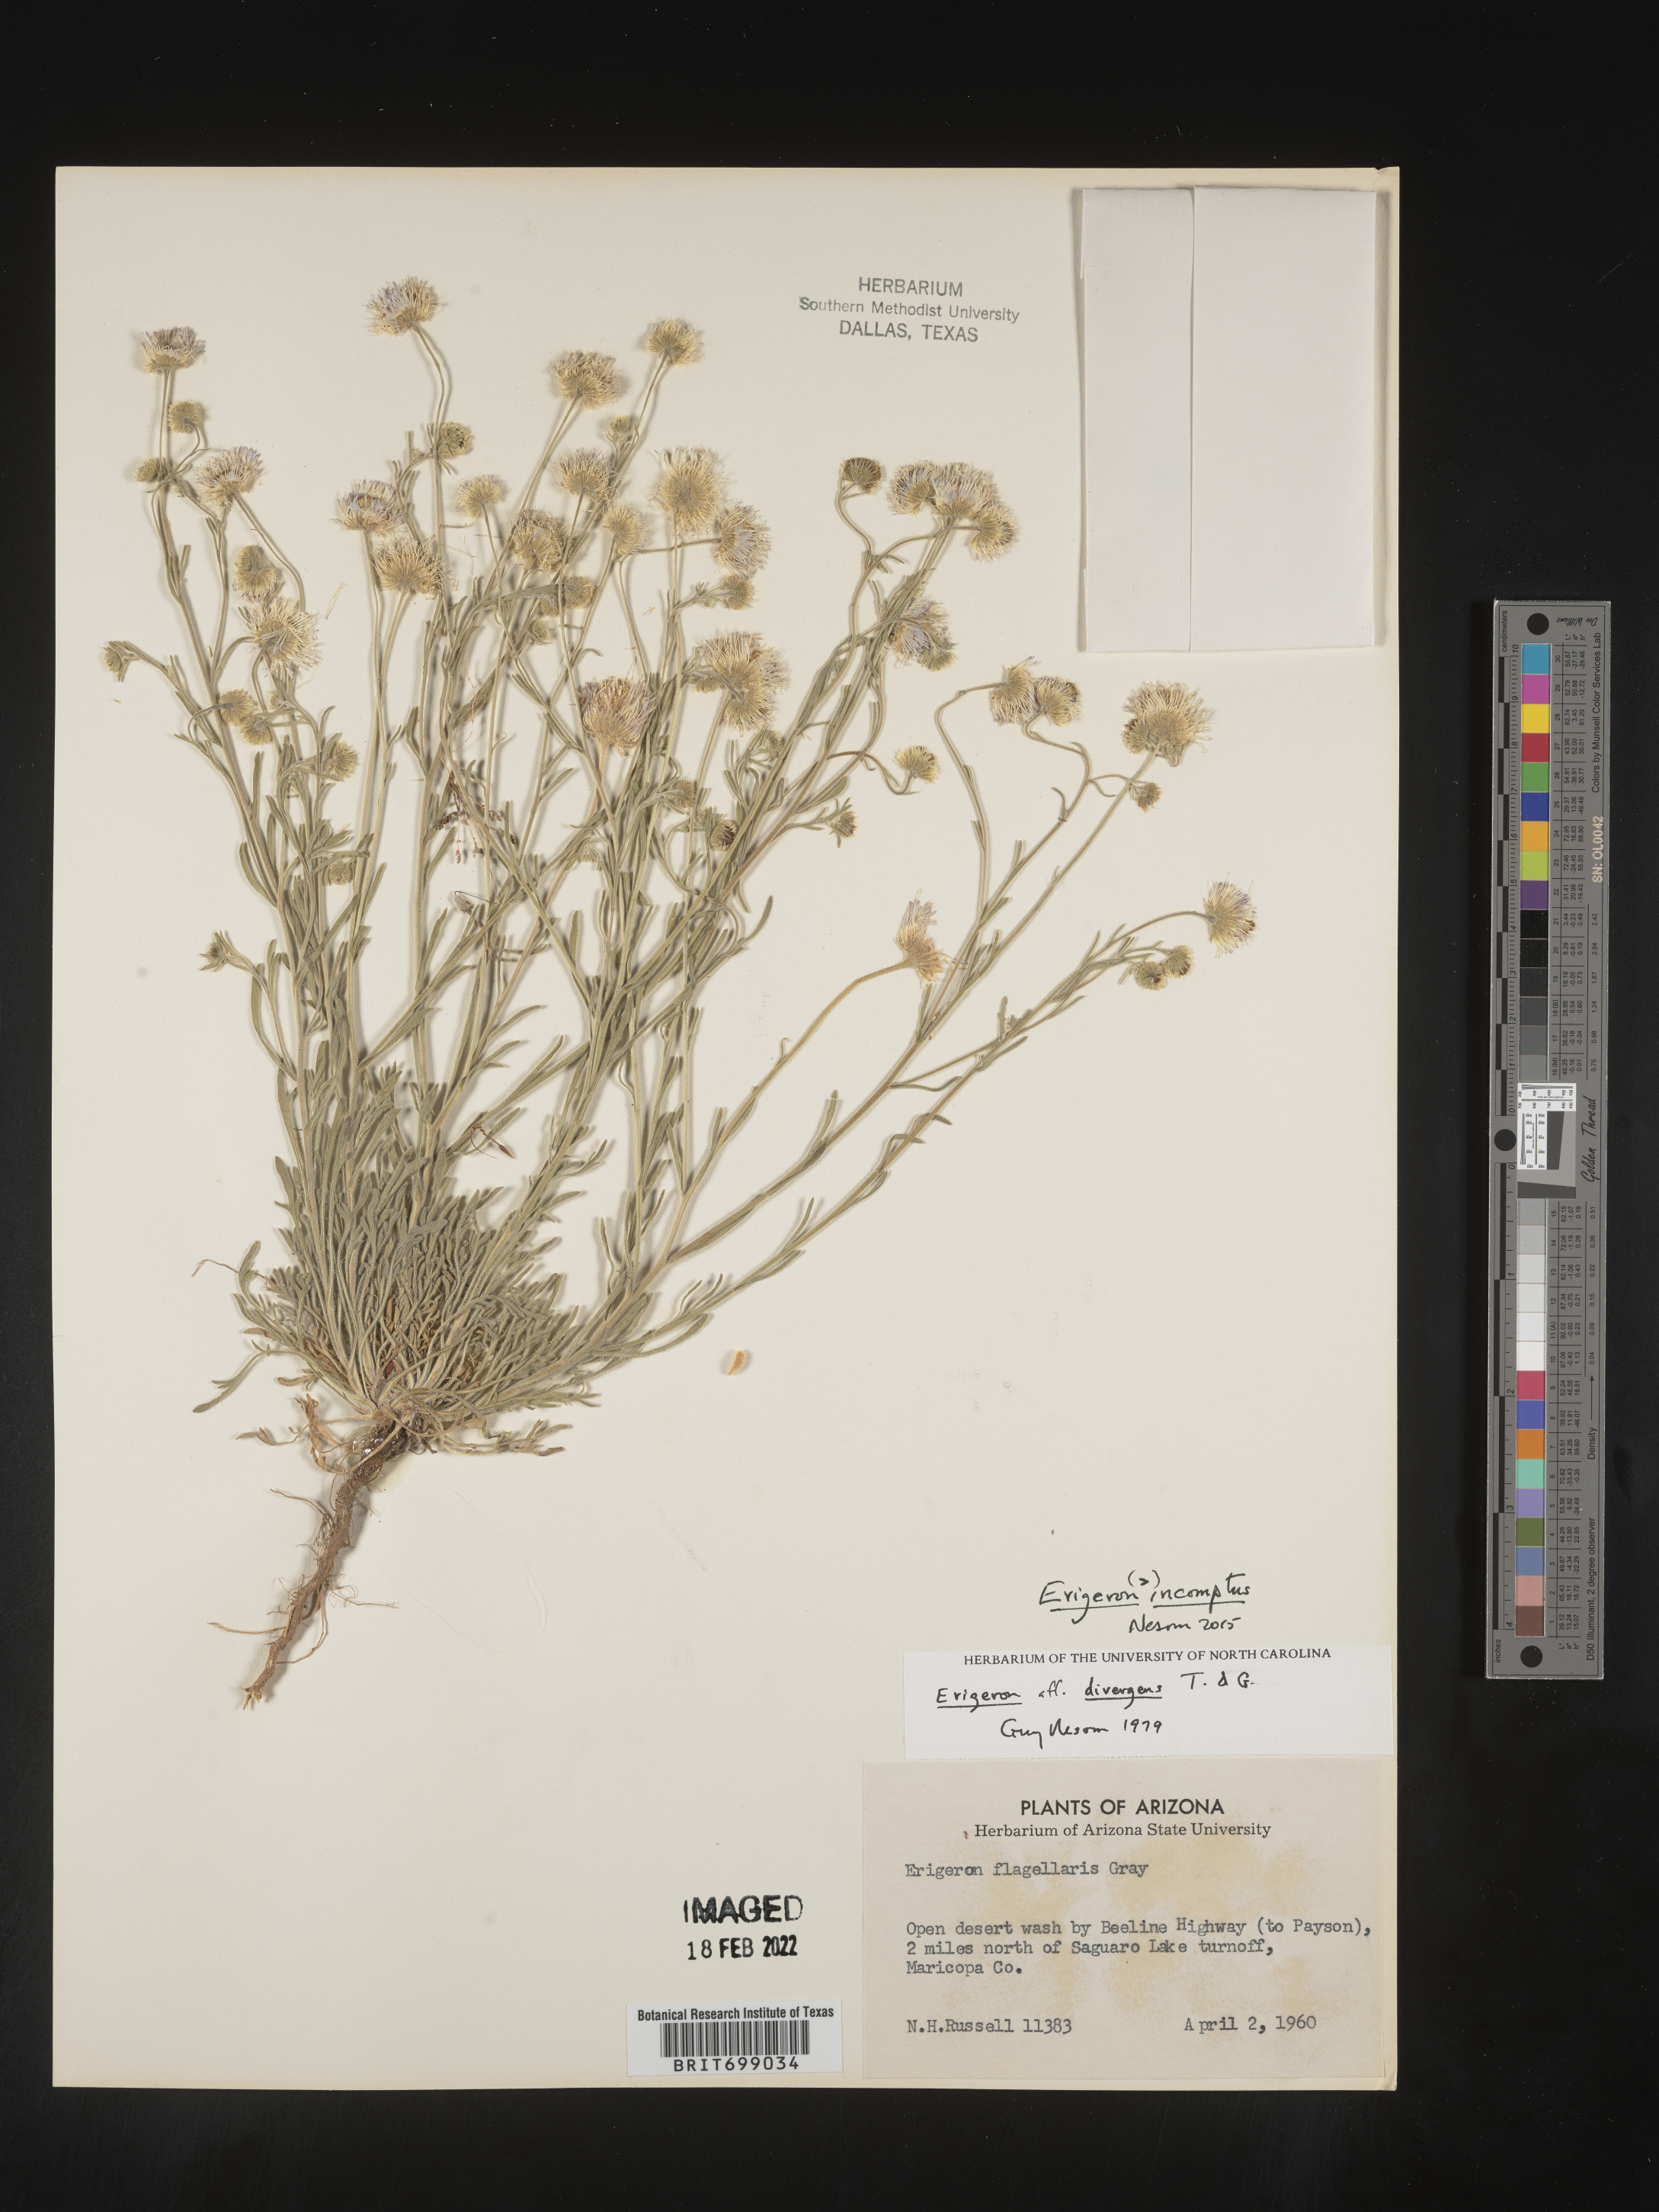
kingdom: Plantae
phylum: Tracheophyta
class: Magnoliopsida
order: Asterales
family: Asteraceae
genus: Erigeron
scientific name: Erigeron tracyi
